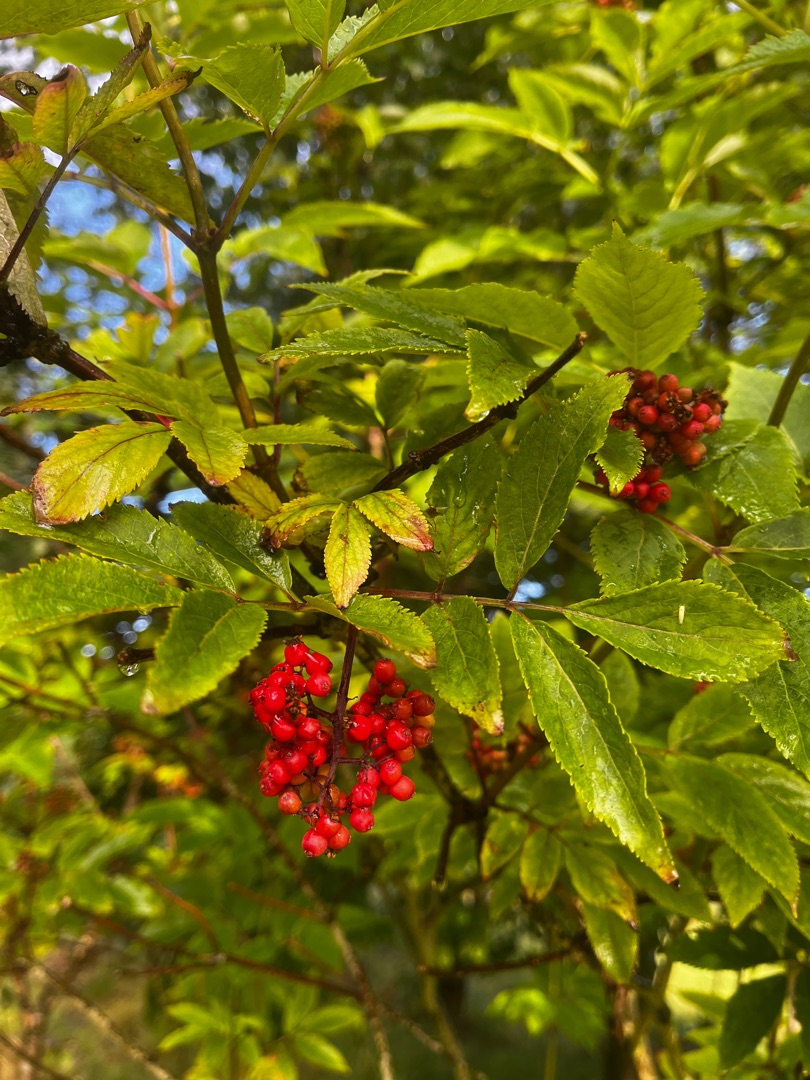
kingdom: Plantae
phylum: Tracheophyta
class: Magnoliopsida
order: Dipsacales
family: Viburnaceae
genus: Sambucus
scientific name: Sambucus racemosa
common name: Drue-hyld
